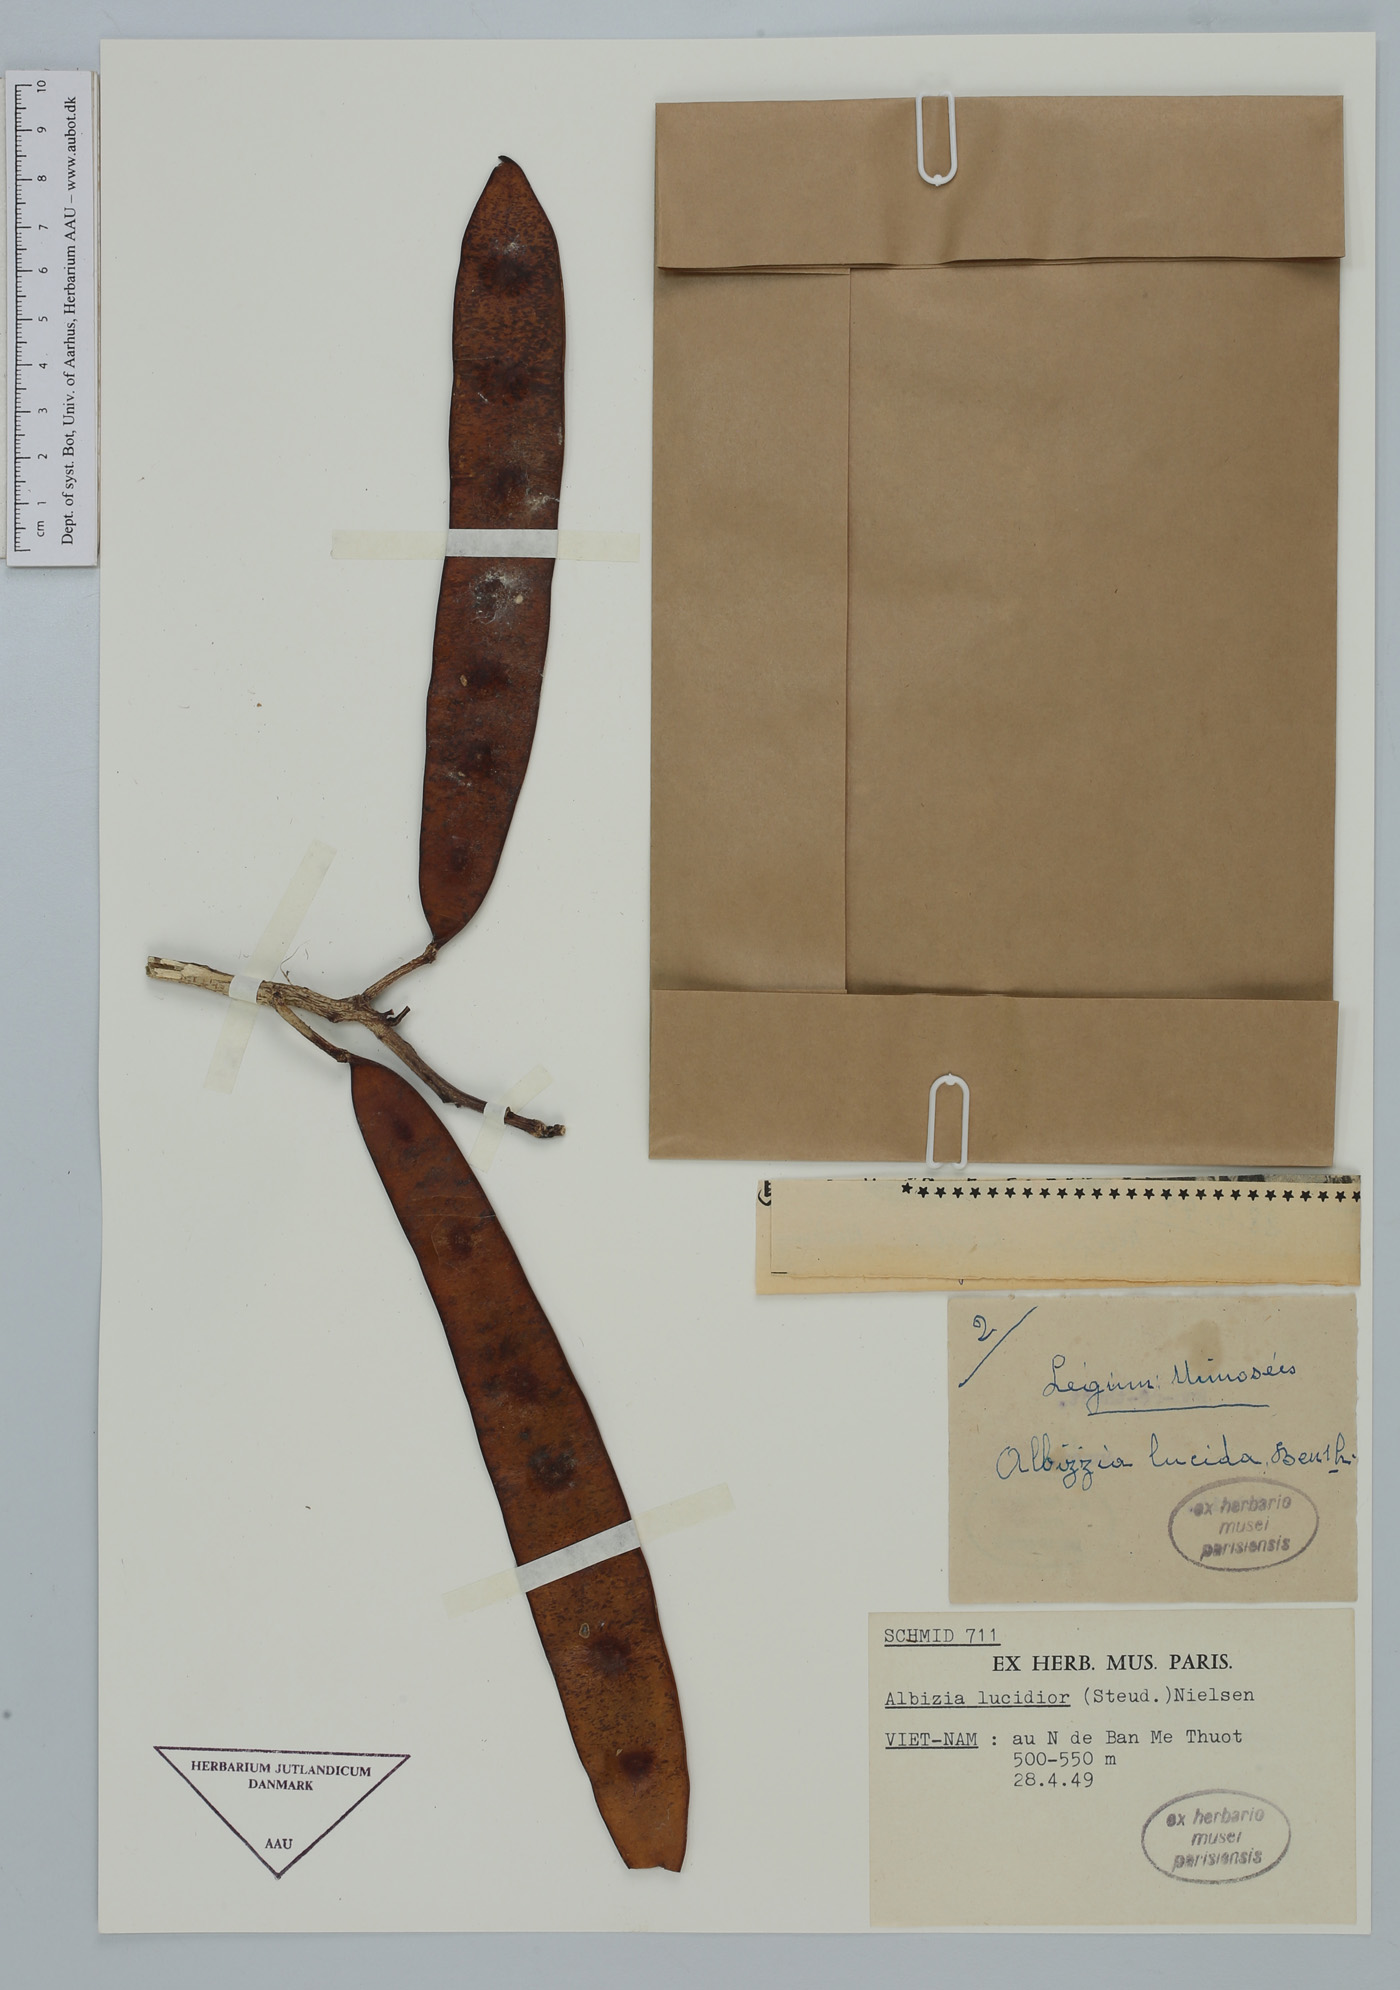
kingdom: Plantae
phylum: Tracheophyta
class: Magnoliopsida
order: Fabales
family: Fabaceae
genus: Albizia
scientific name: Albizia lucidior
